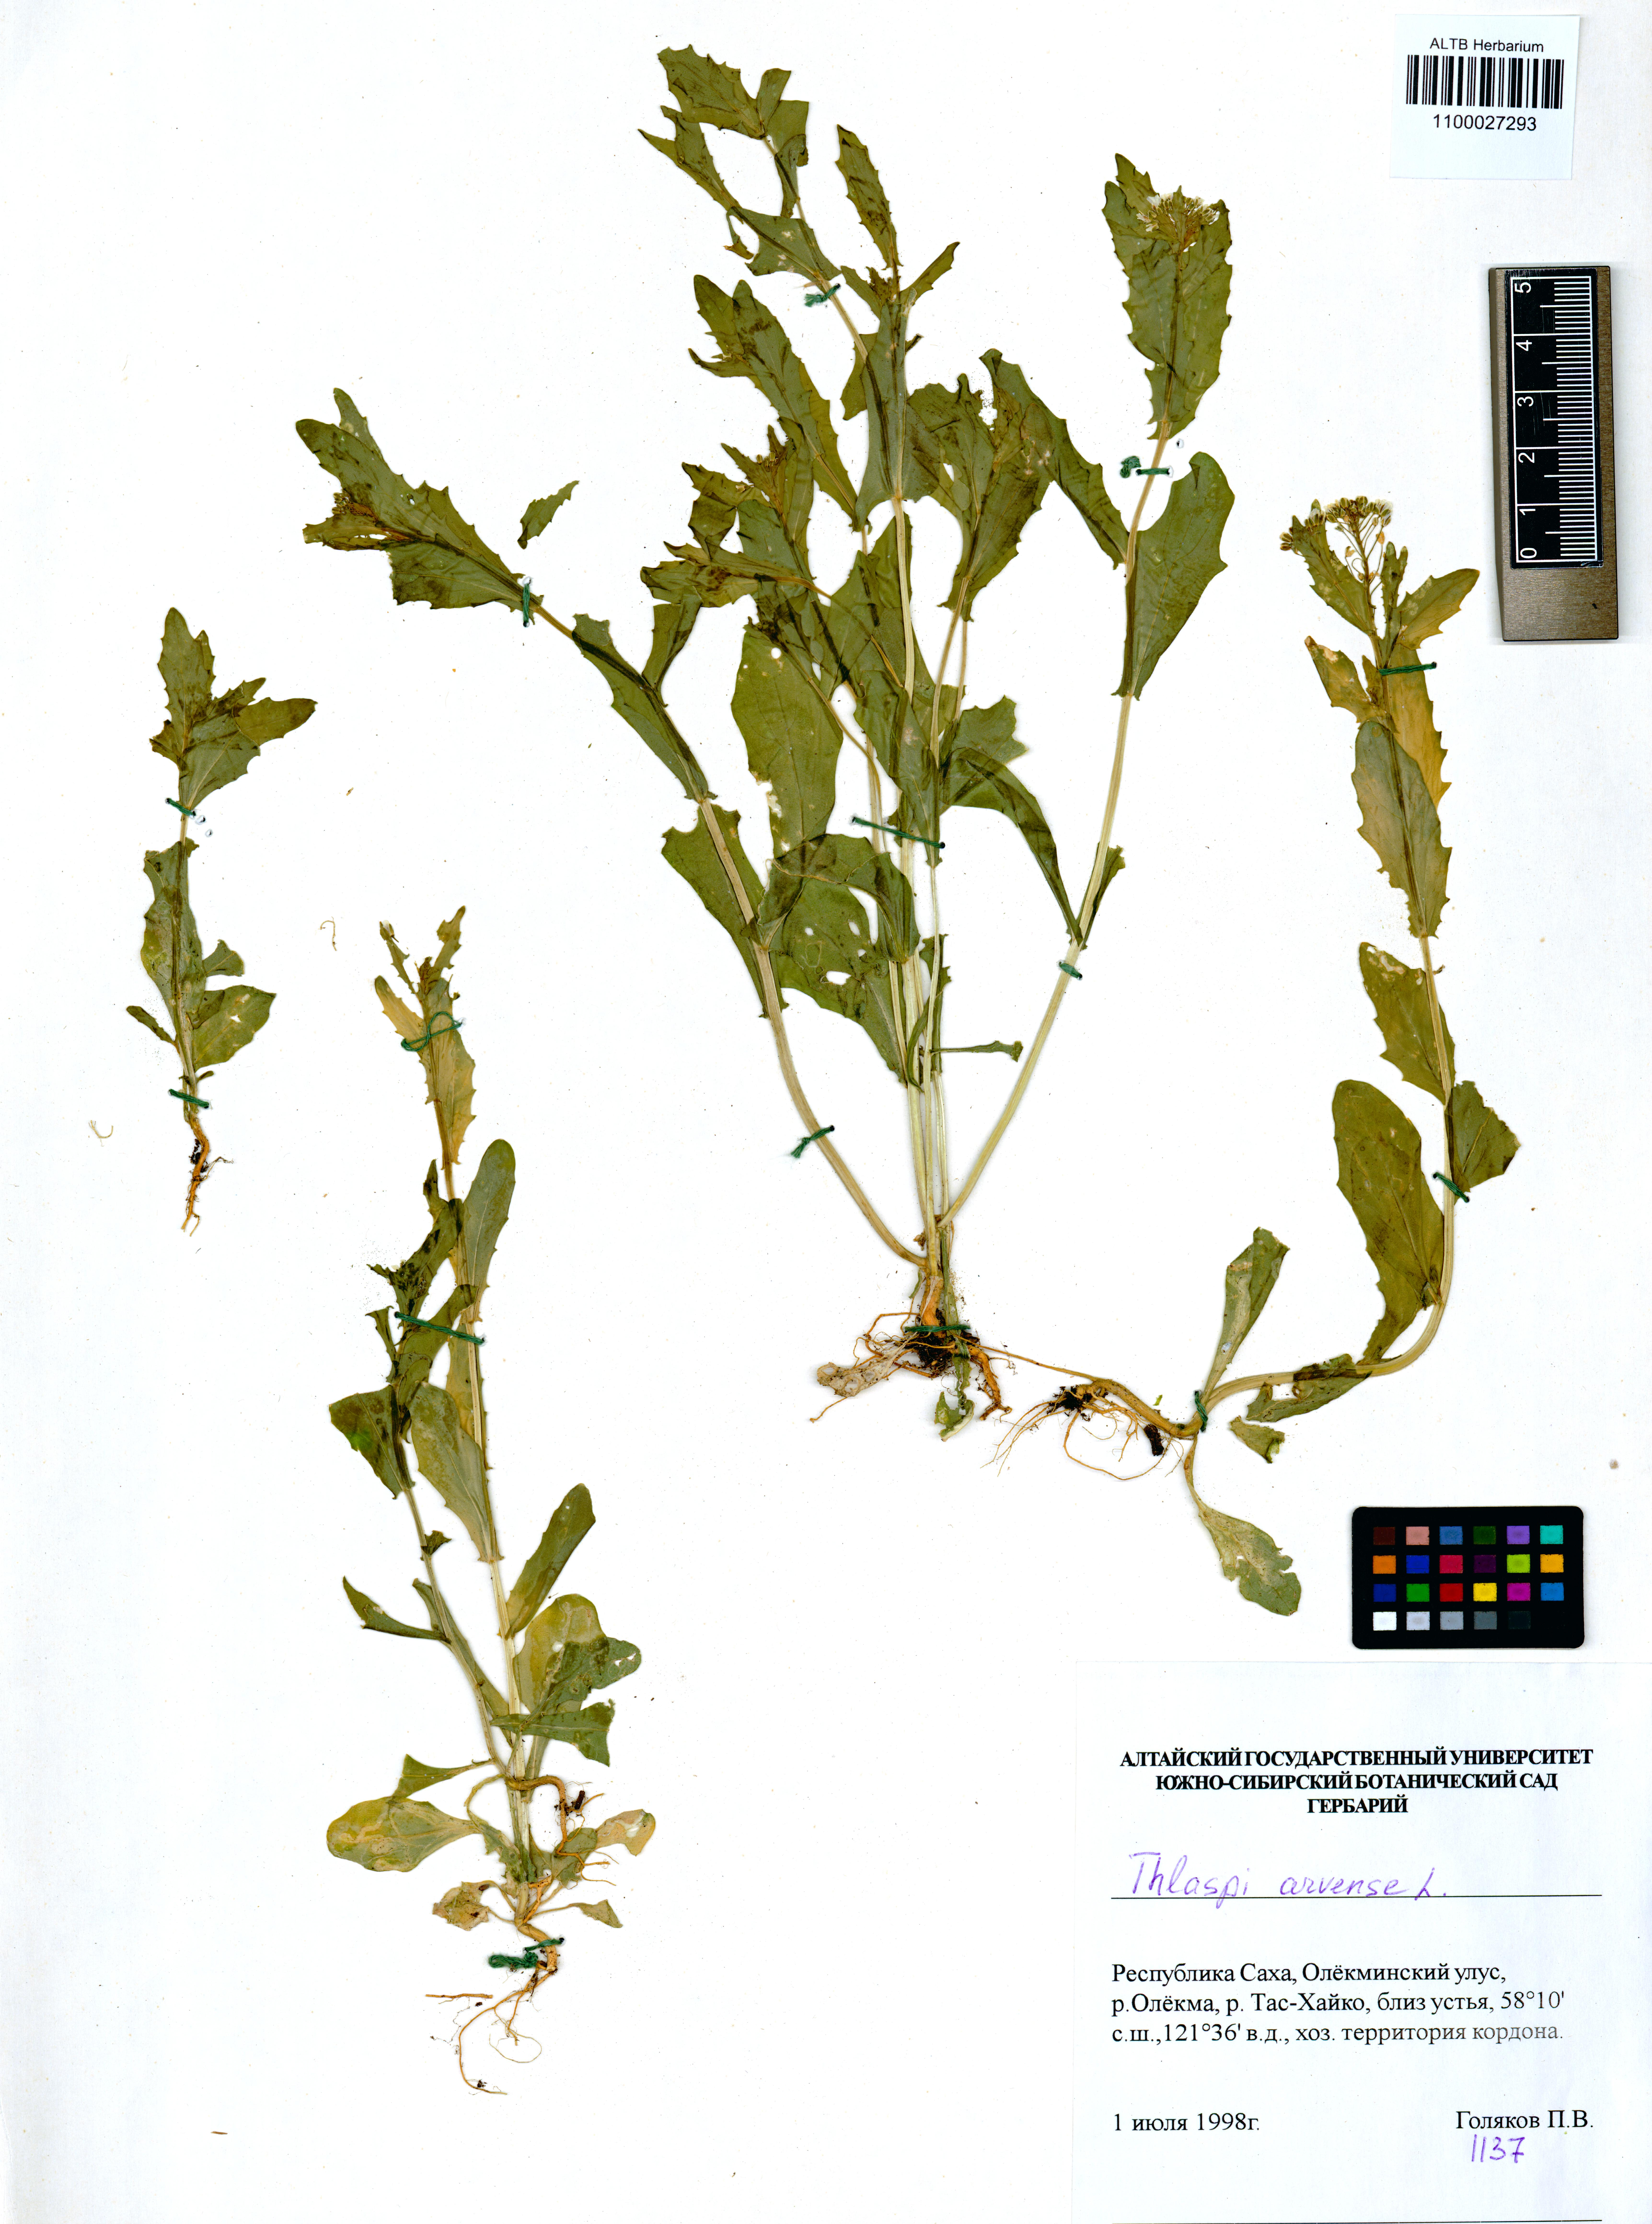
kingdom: Plantae
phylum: Tracheophyta
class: Magnoliopsida
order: Brassicales
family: Brassicaceae
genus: Thlaspi
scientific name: Thlaspi arvense
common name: Field pennycress
